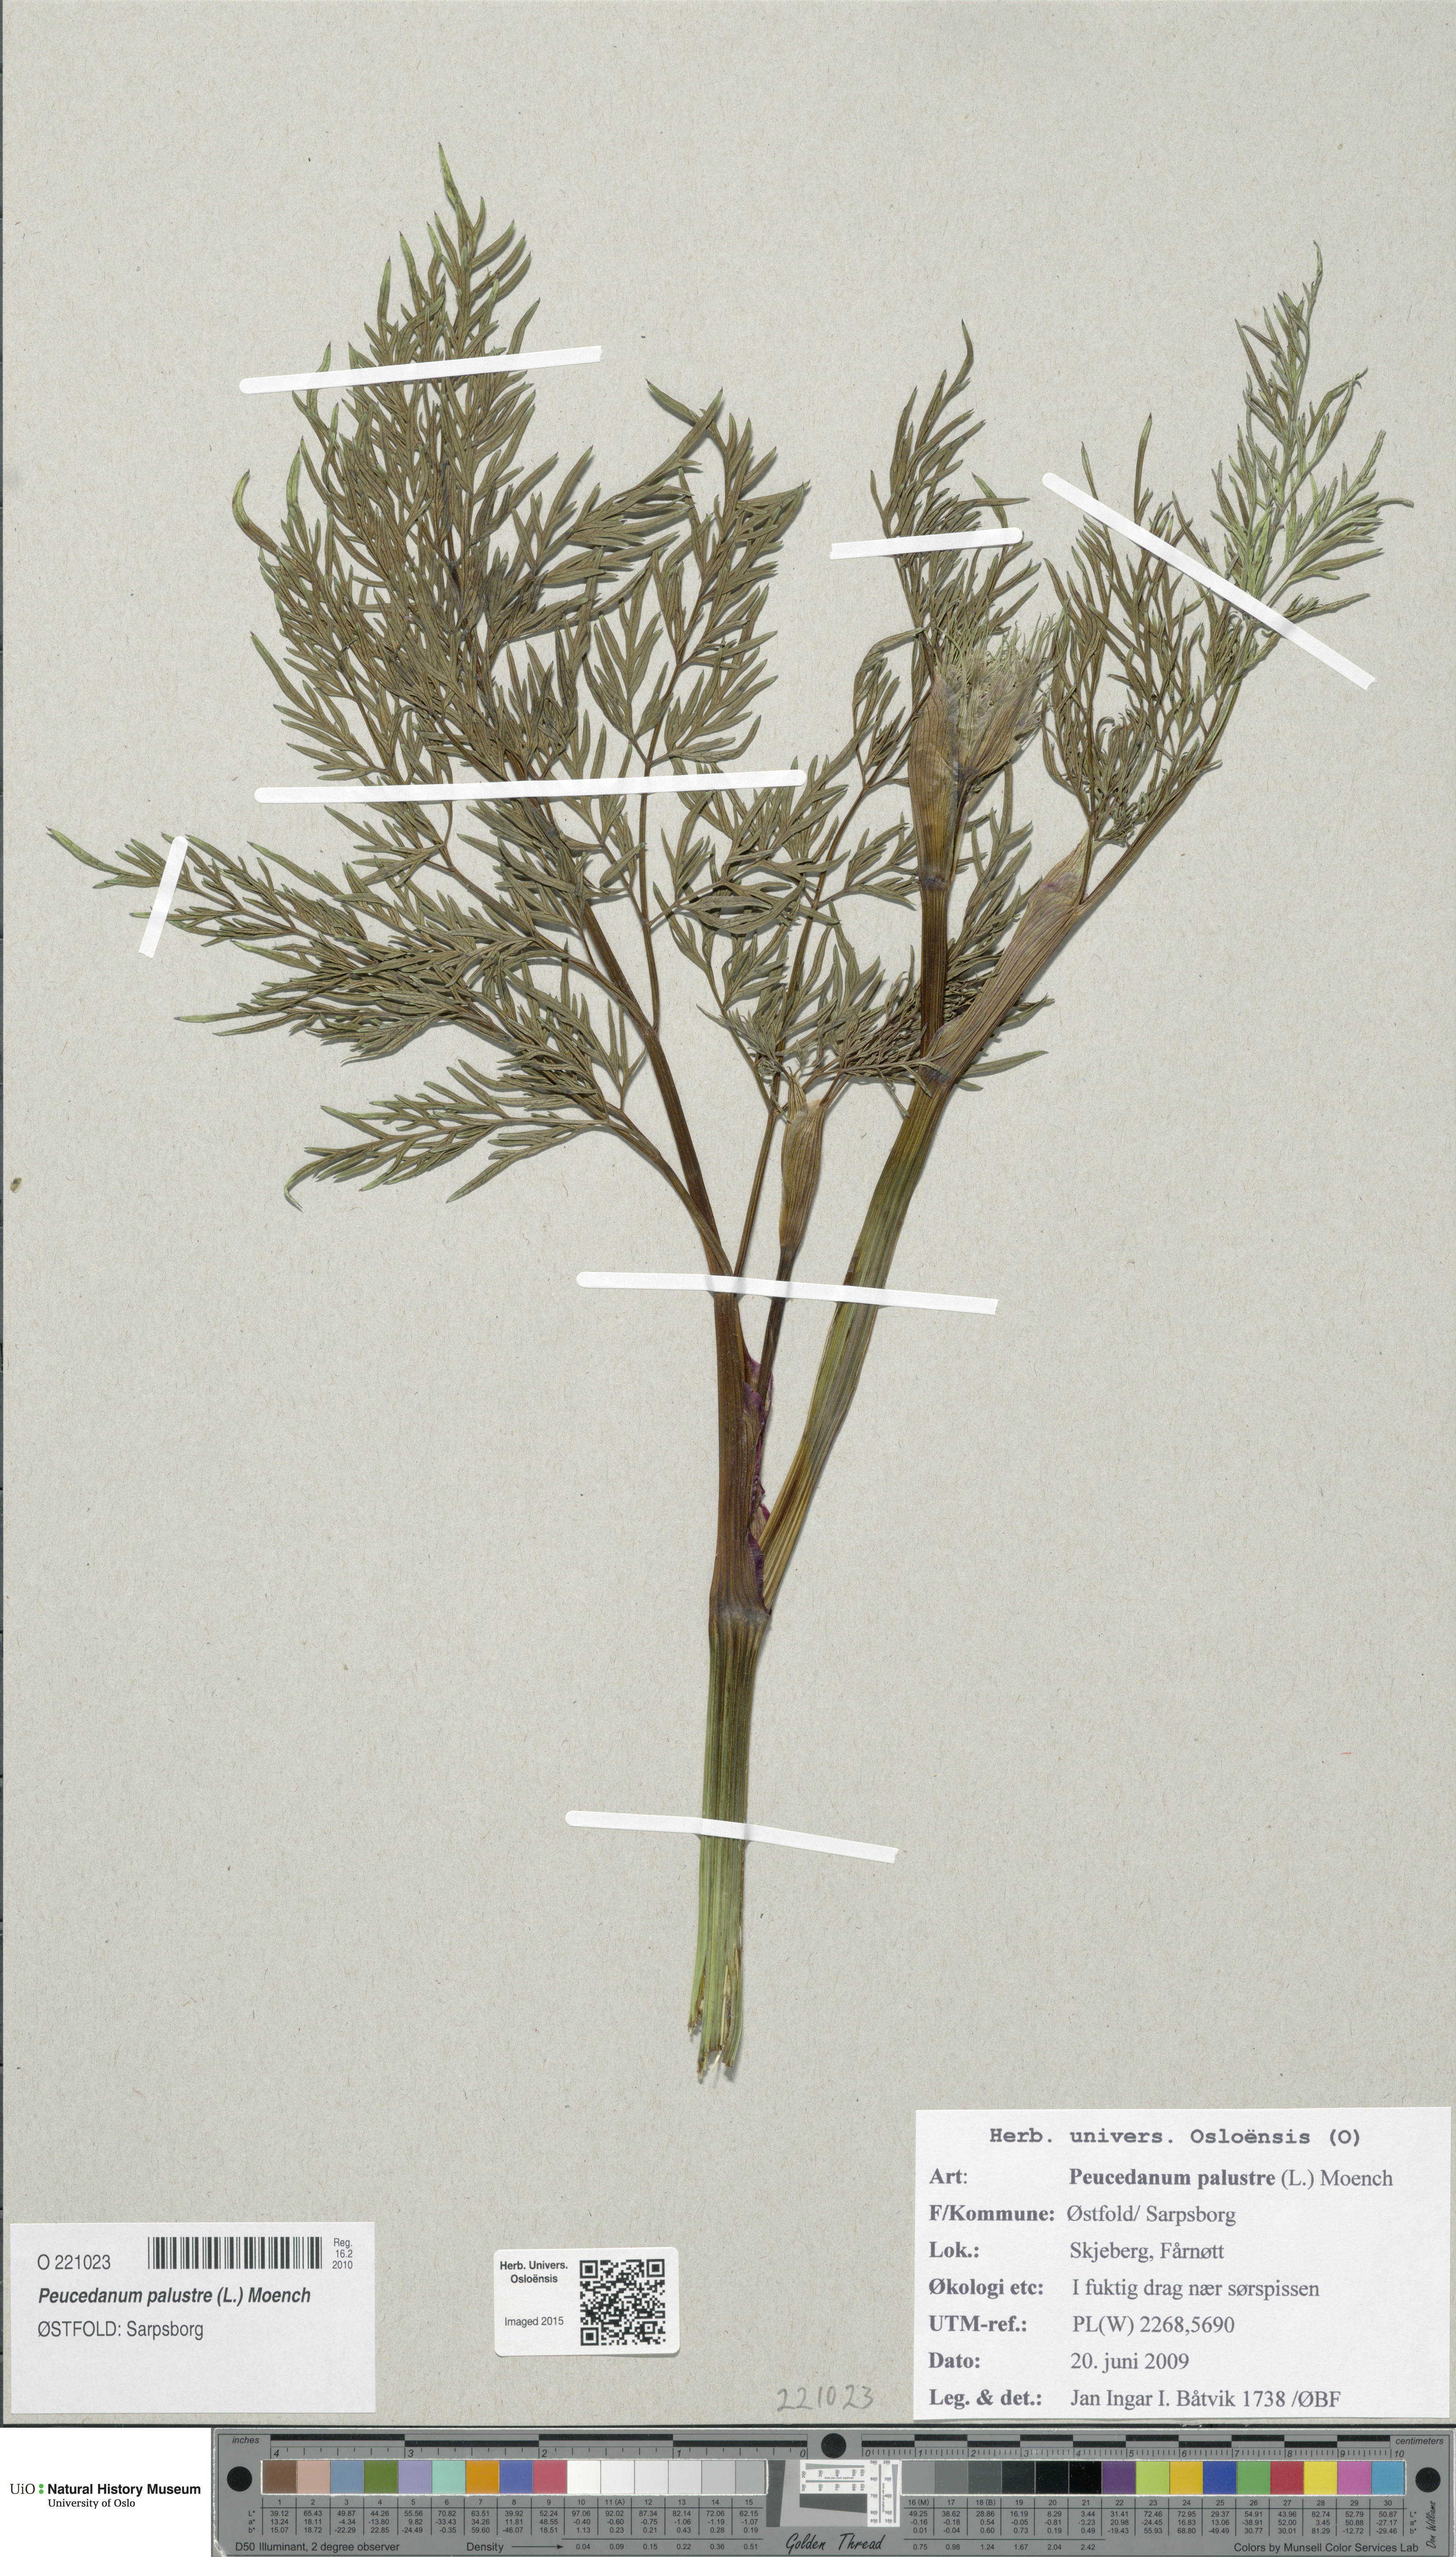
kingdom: Plantae
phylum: Tracheophyta
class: Magnoliopsida
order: Apiales
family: Apiaceae
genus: Thysselinum
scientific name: Thysselinum palustre
